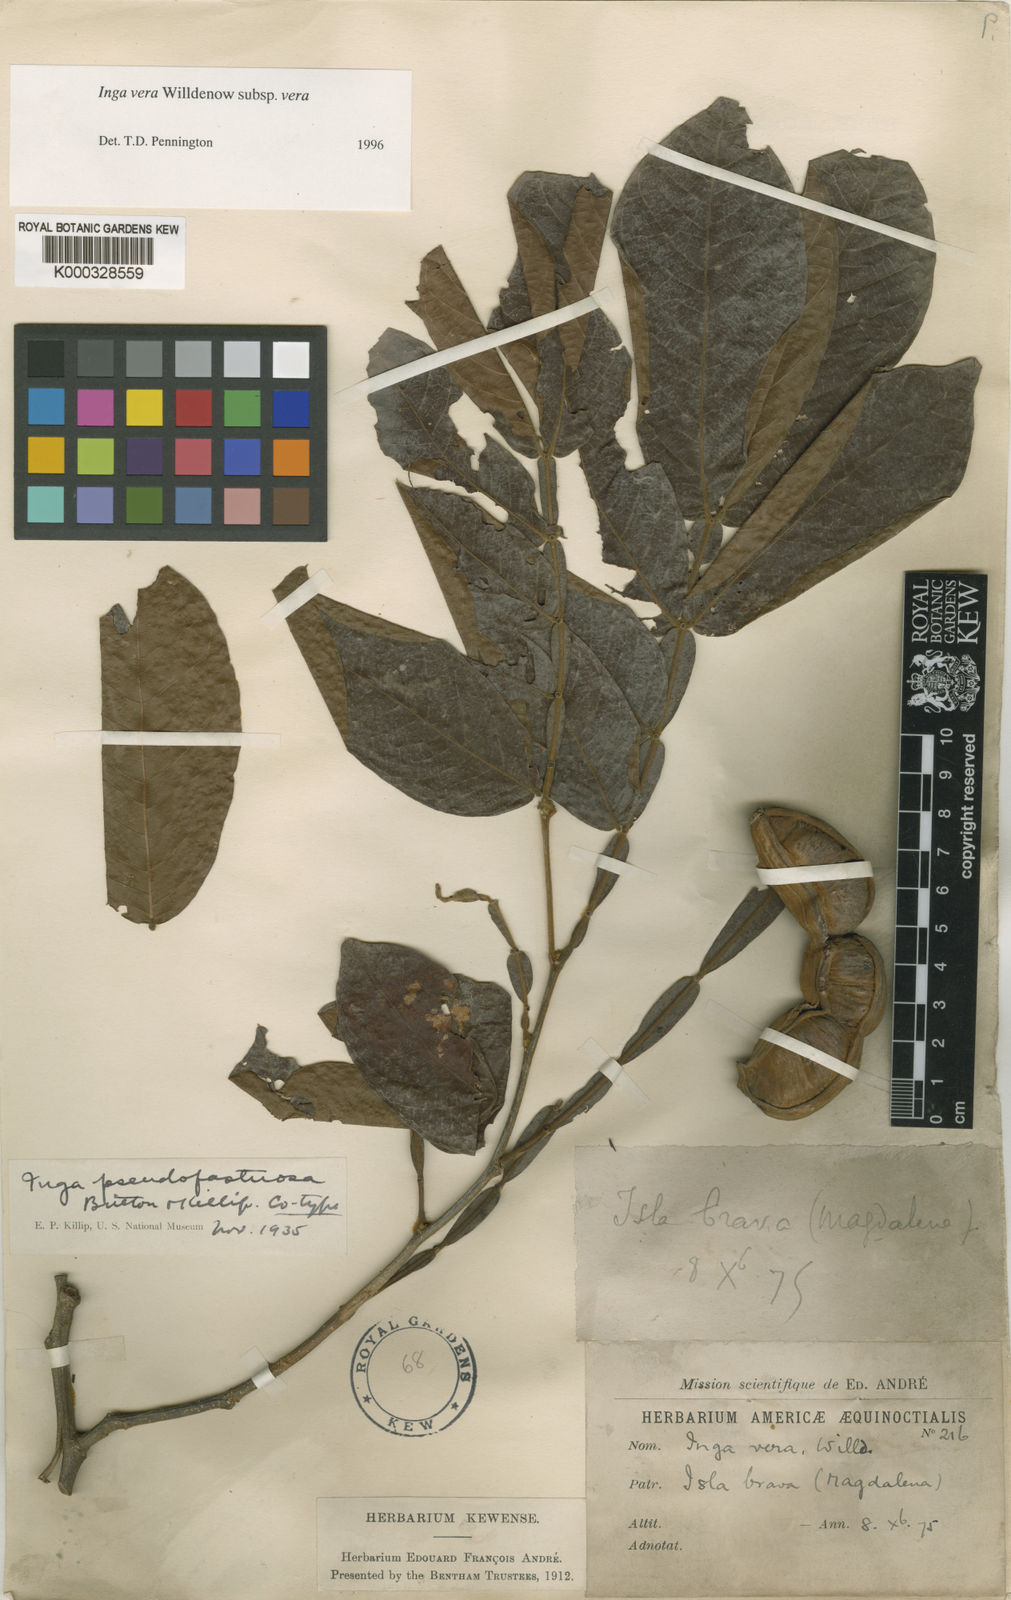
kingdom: Plantae
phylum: Tracheophyta
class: Magnoliopsida
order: Fabales
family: Fabaceae
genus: Inga
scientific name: Inga vera
